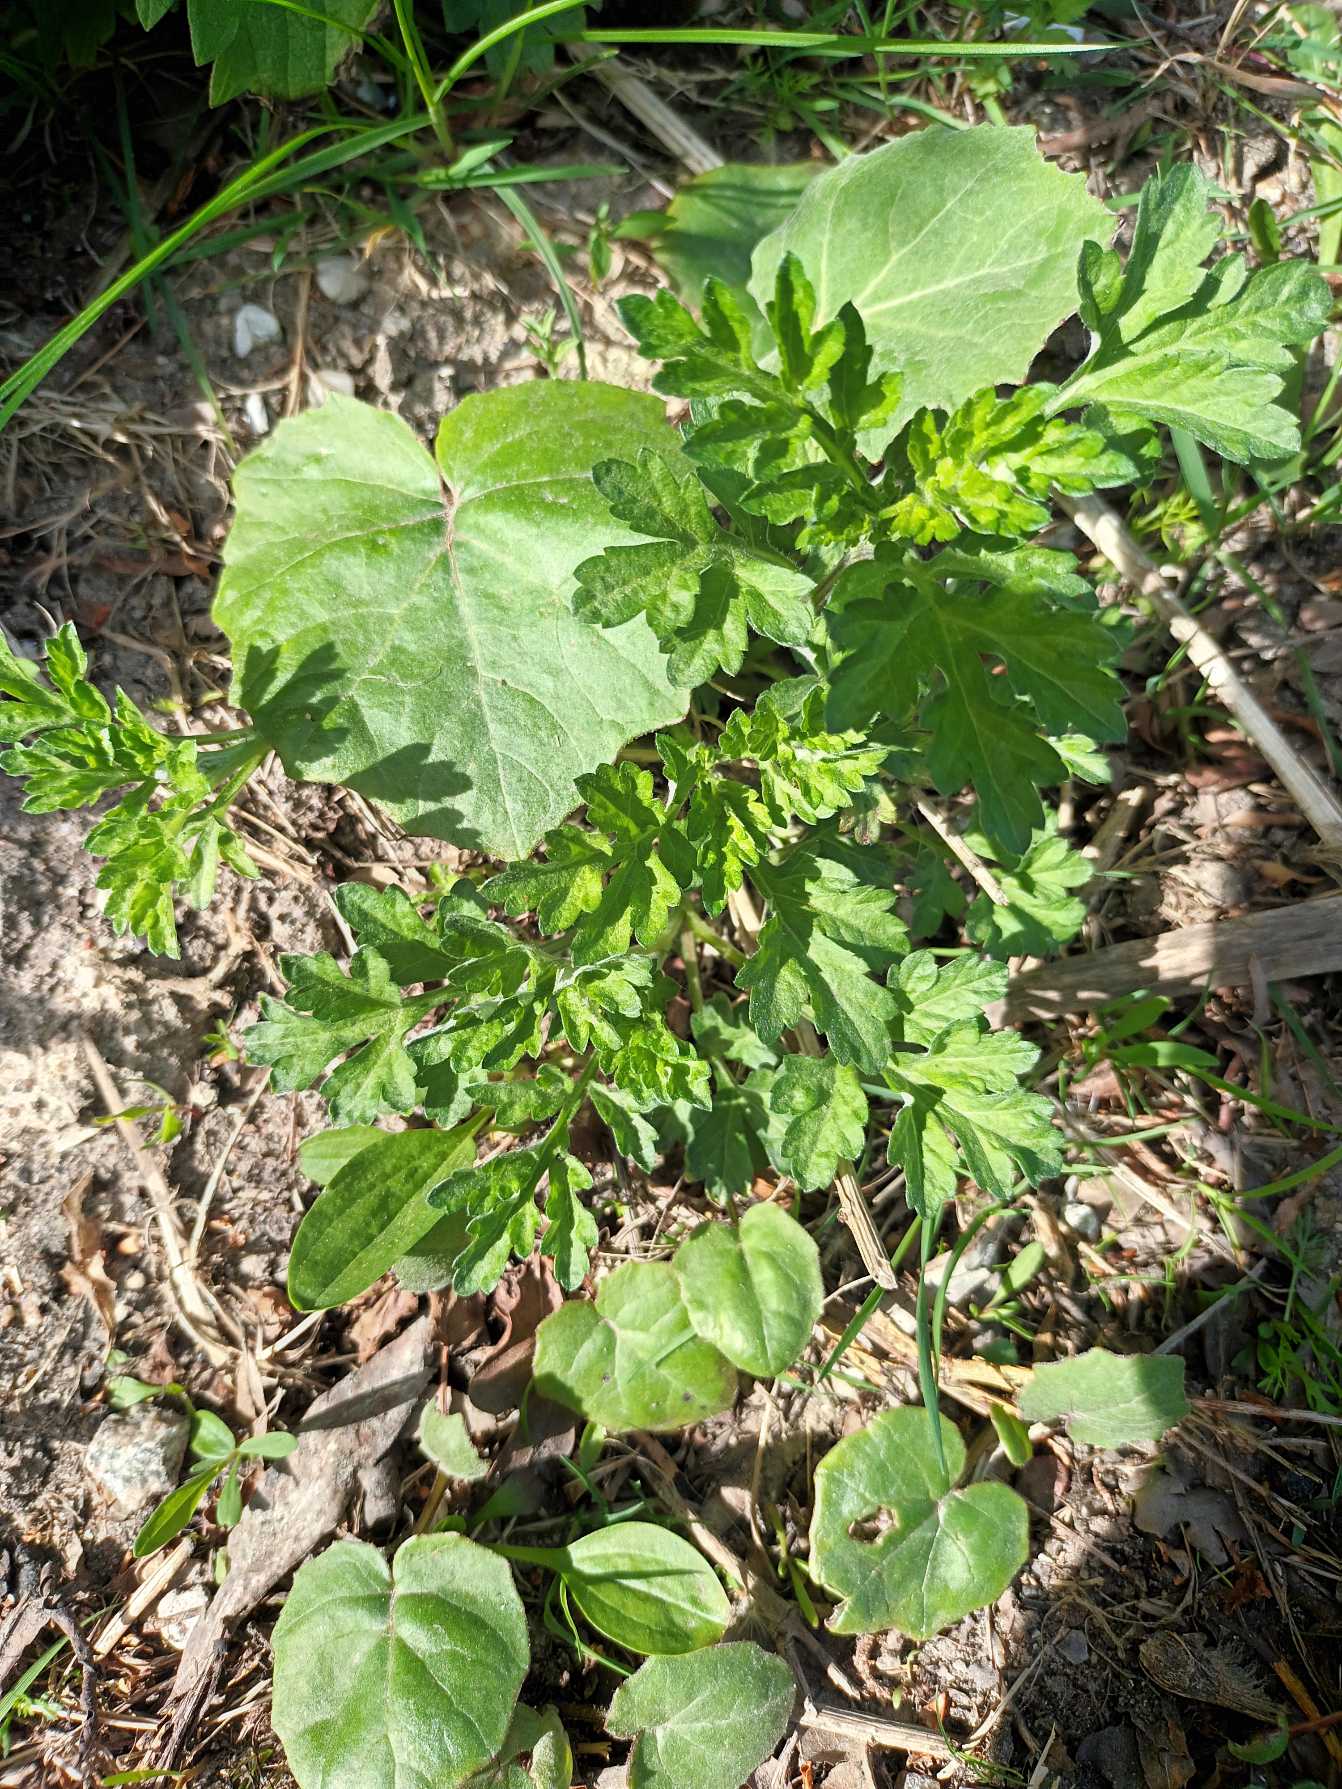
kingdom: Plantae
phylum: Tracheophyta
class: Magnoliopsida
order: Asterales
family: Asteraceae
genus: Artemisia
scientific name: Artemisia vulgaris
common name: Grå-bynke
